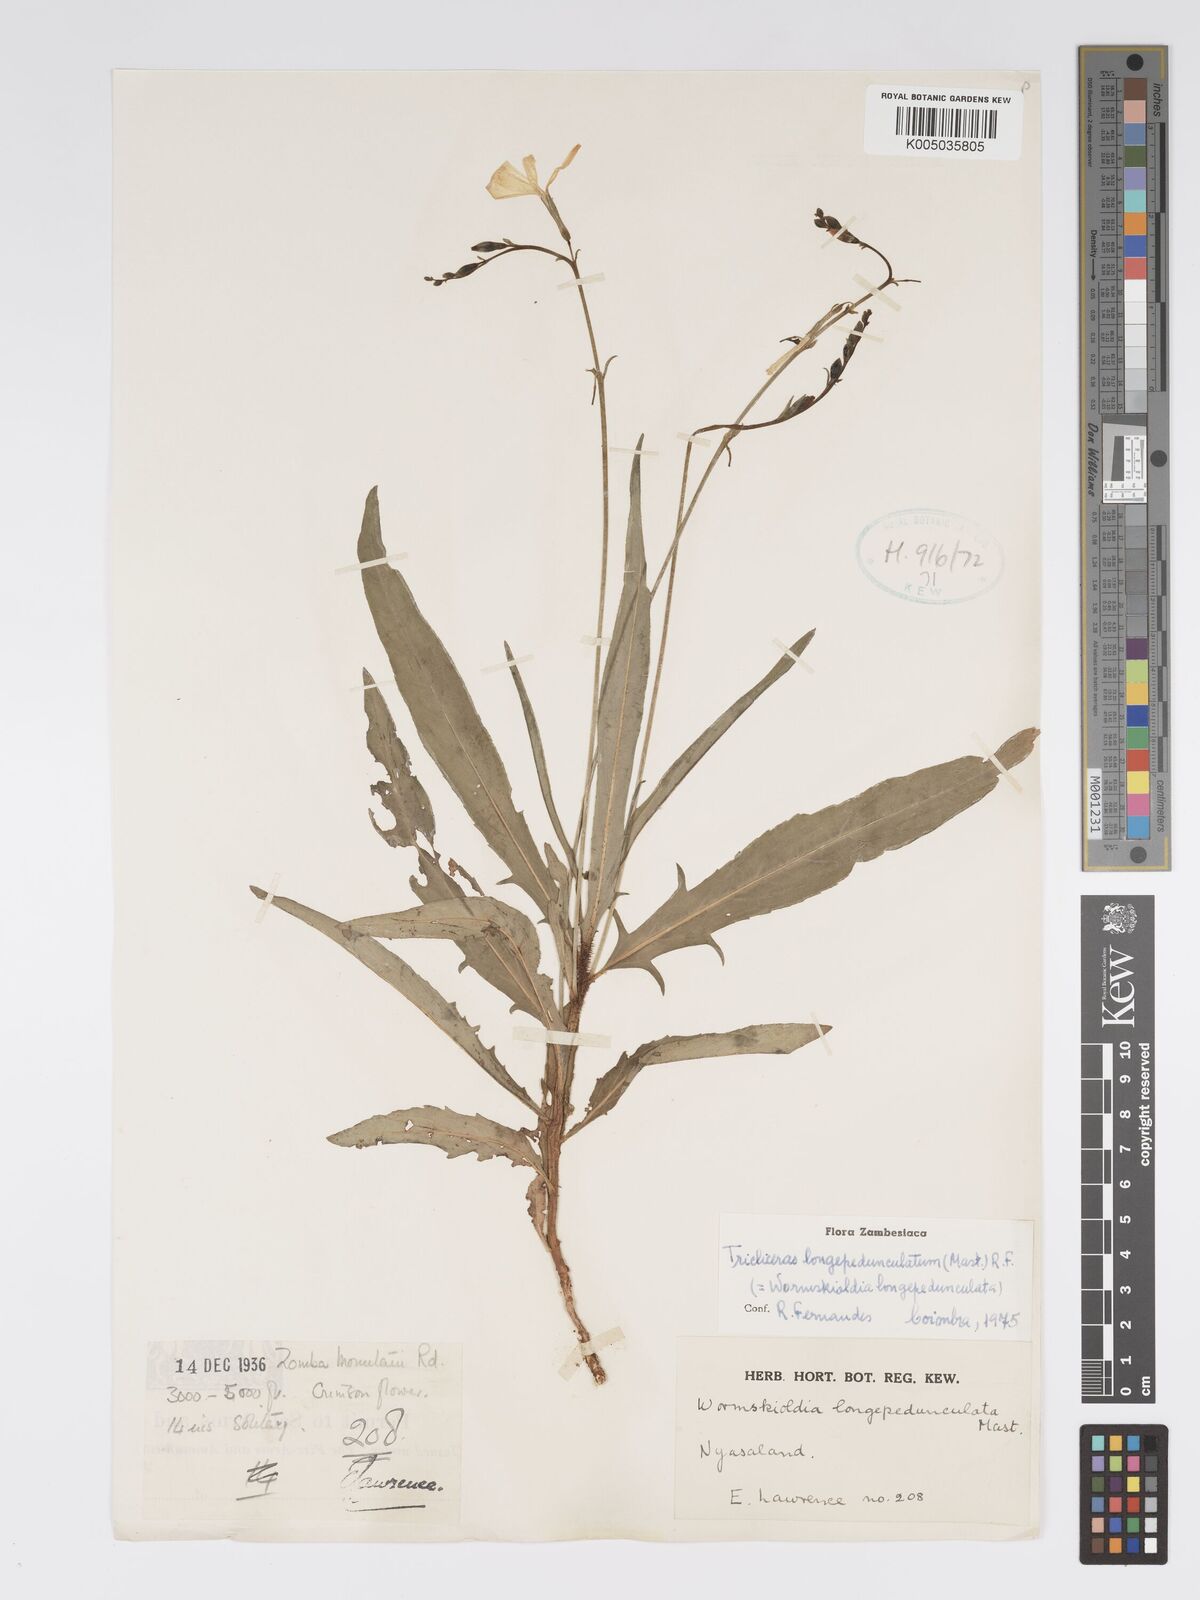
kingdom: Plantae
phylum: Tracheophyta
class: Magnoliopsida
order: Malpighiales
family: Turneraceae
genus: Tricliceras
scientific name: Tricliceras longepedunculatum
